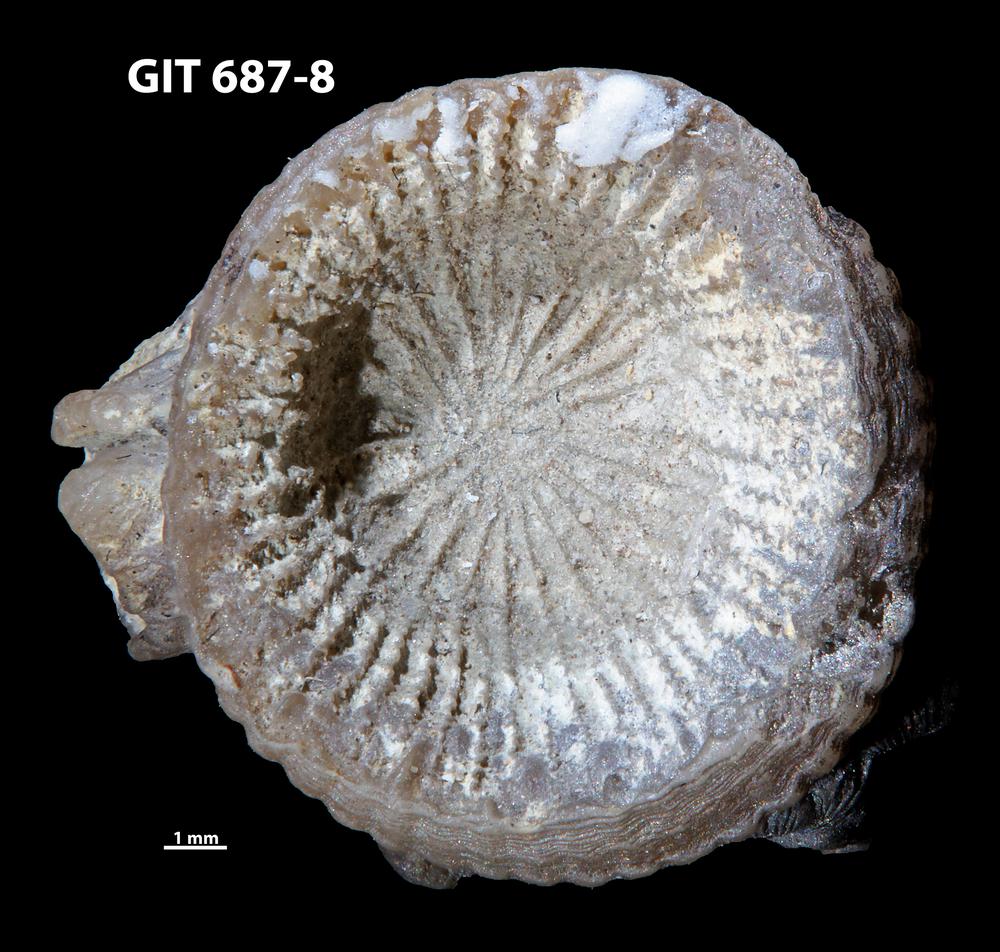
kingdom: Animalia
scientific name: Animalia
